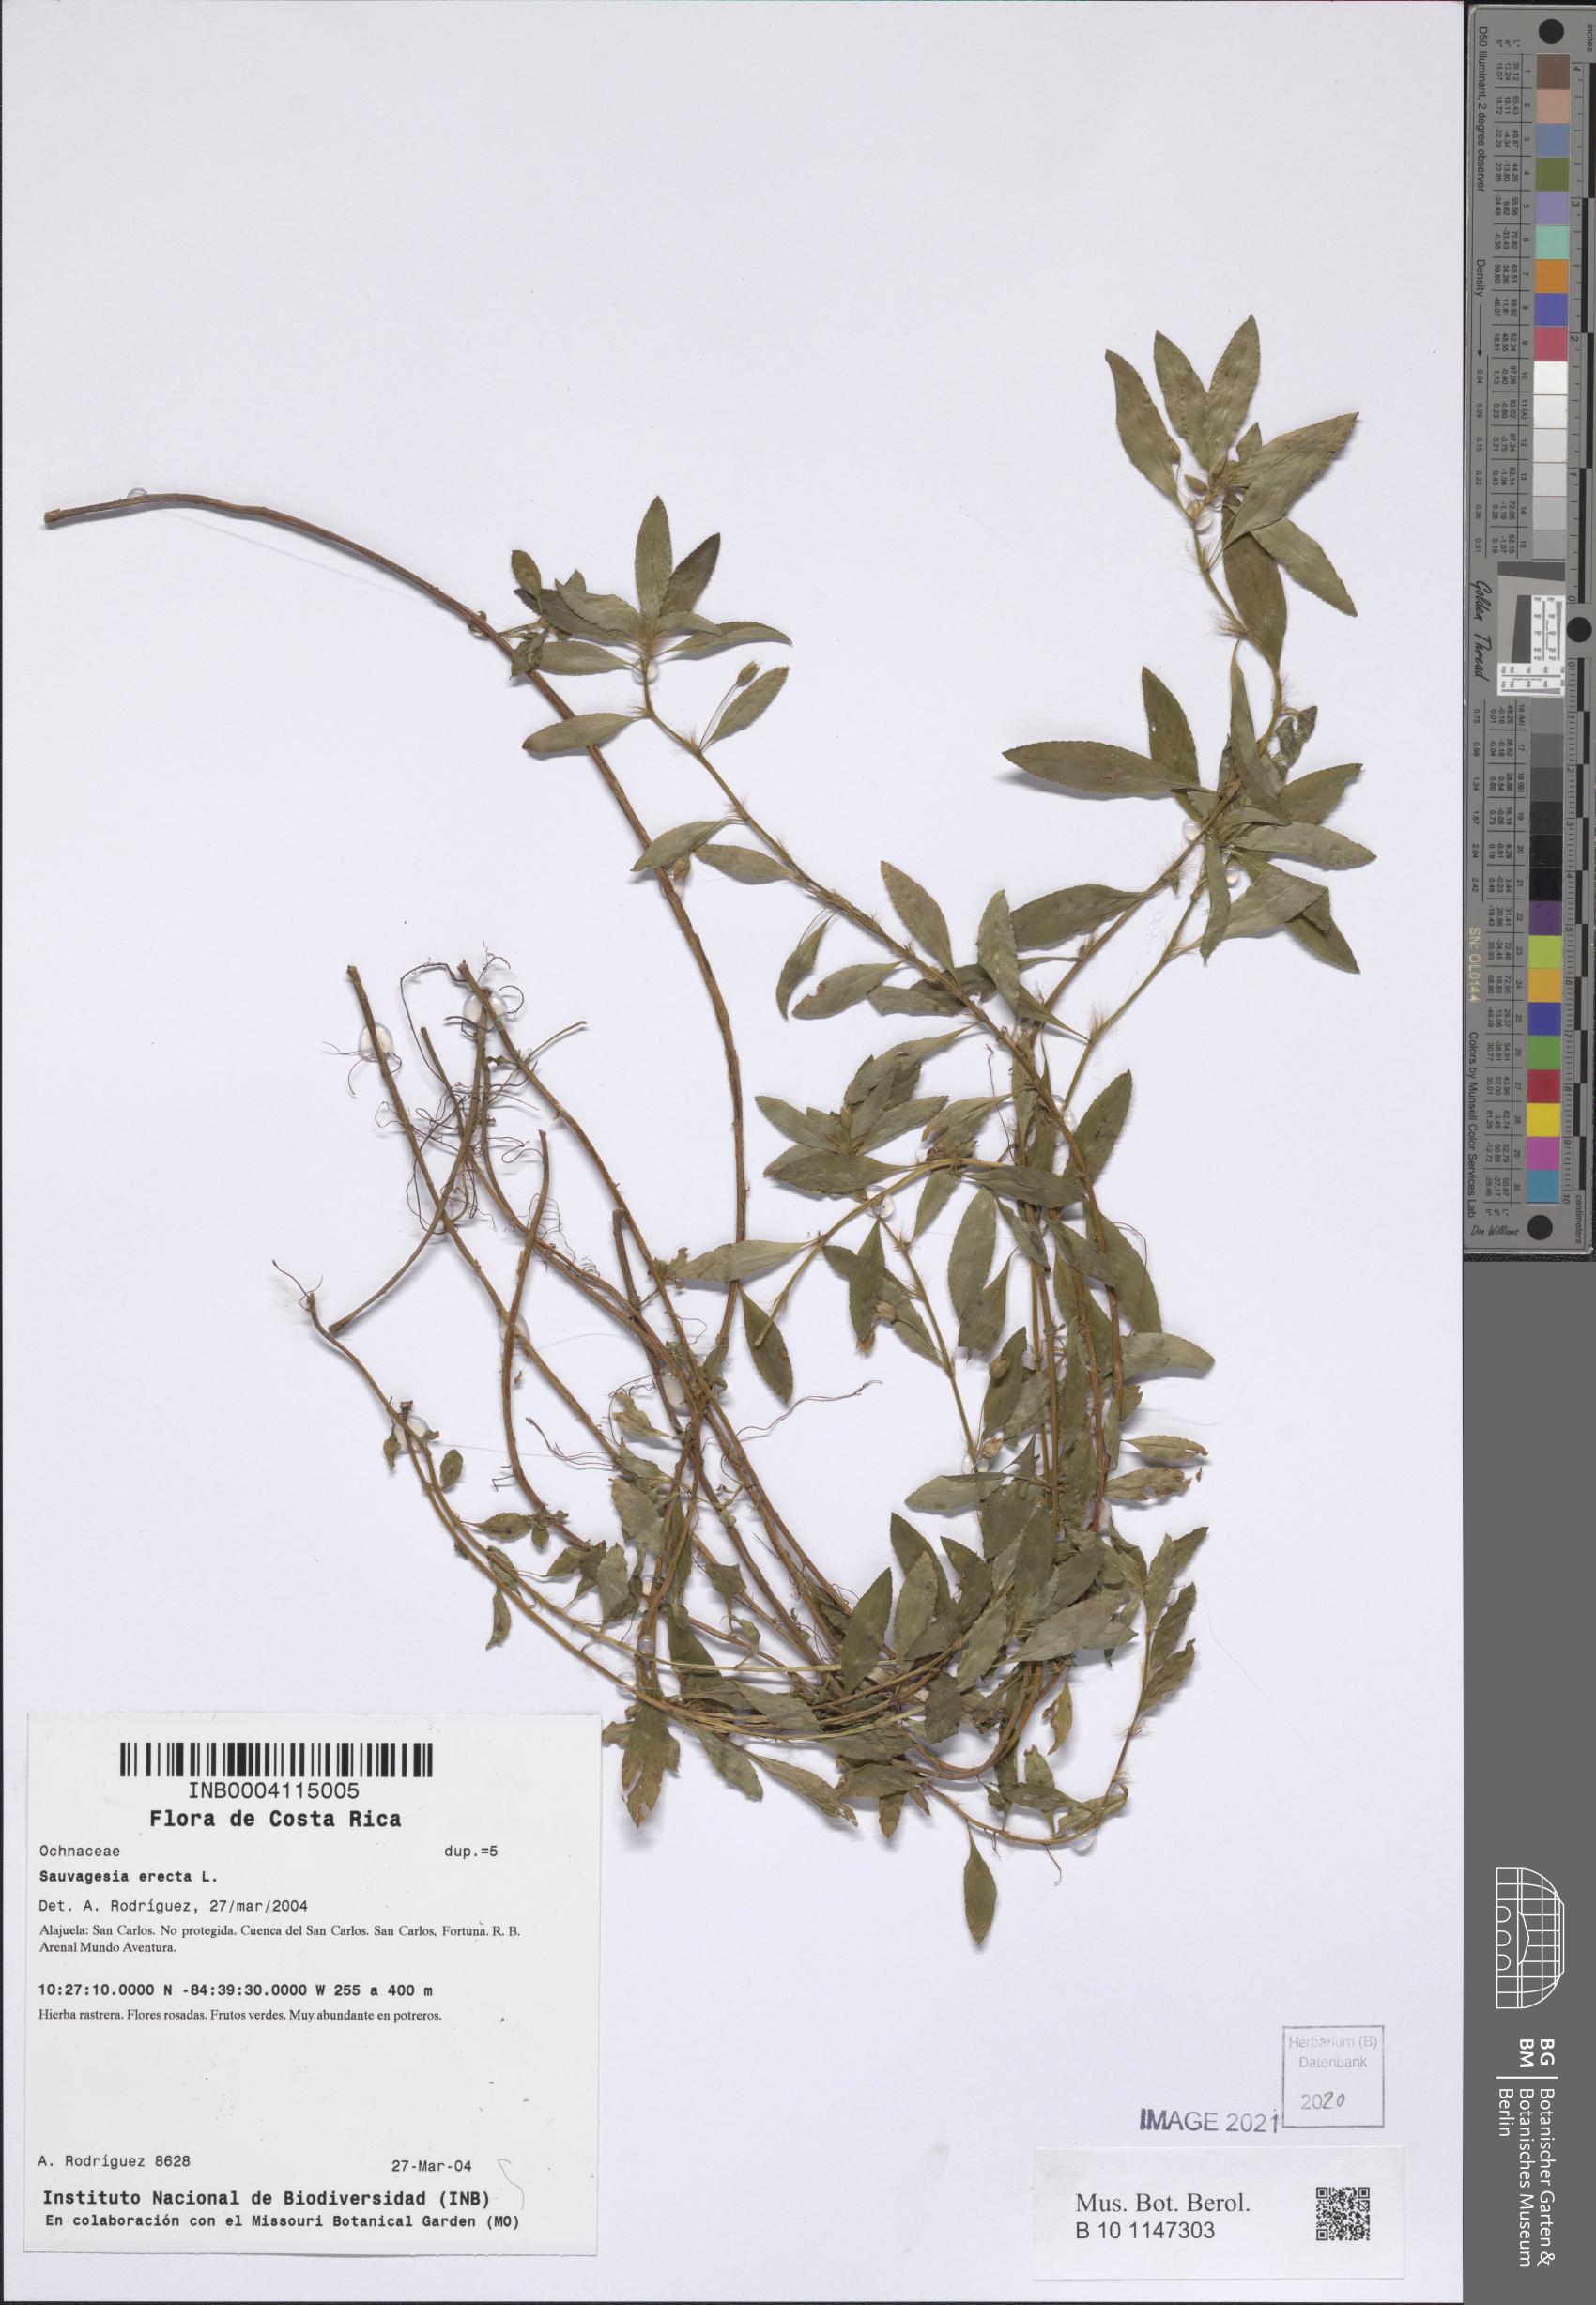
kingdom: Plantae
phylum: Tracheophyta
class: Magnoliopsida
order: Malpighiales
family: Ochnaceae
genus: Sauvagesia
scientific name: Sauvagesia erecta
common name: Creole tea
